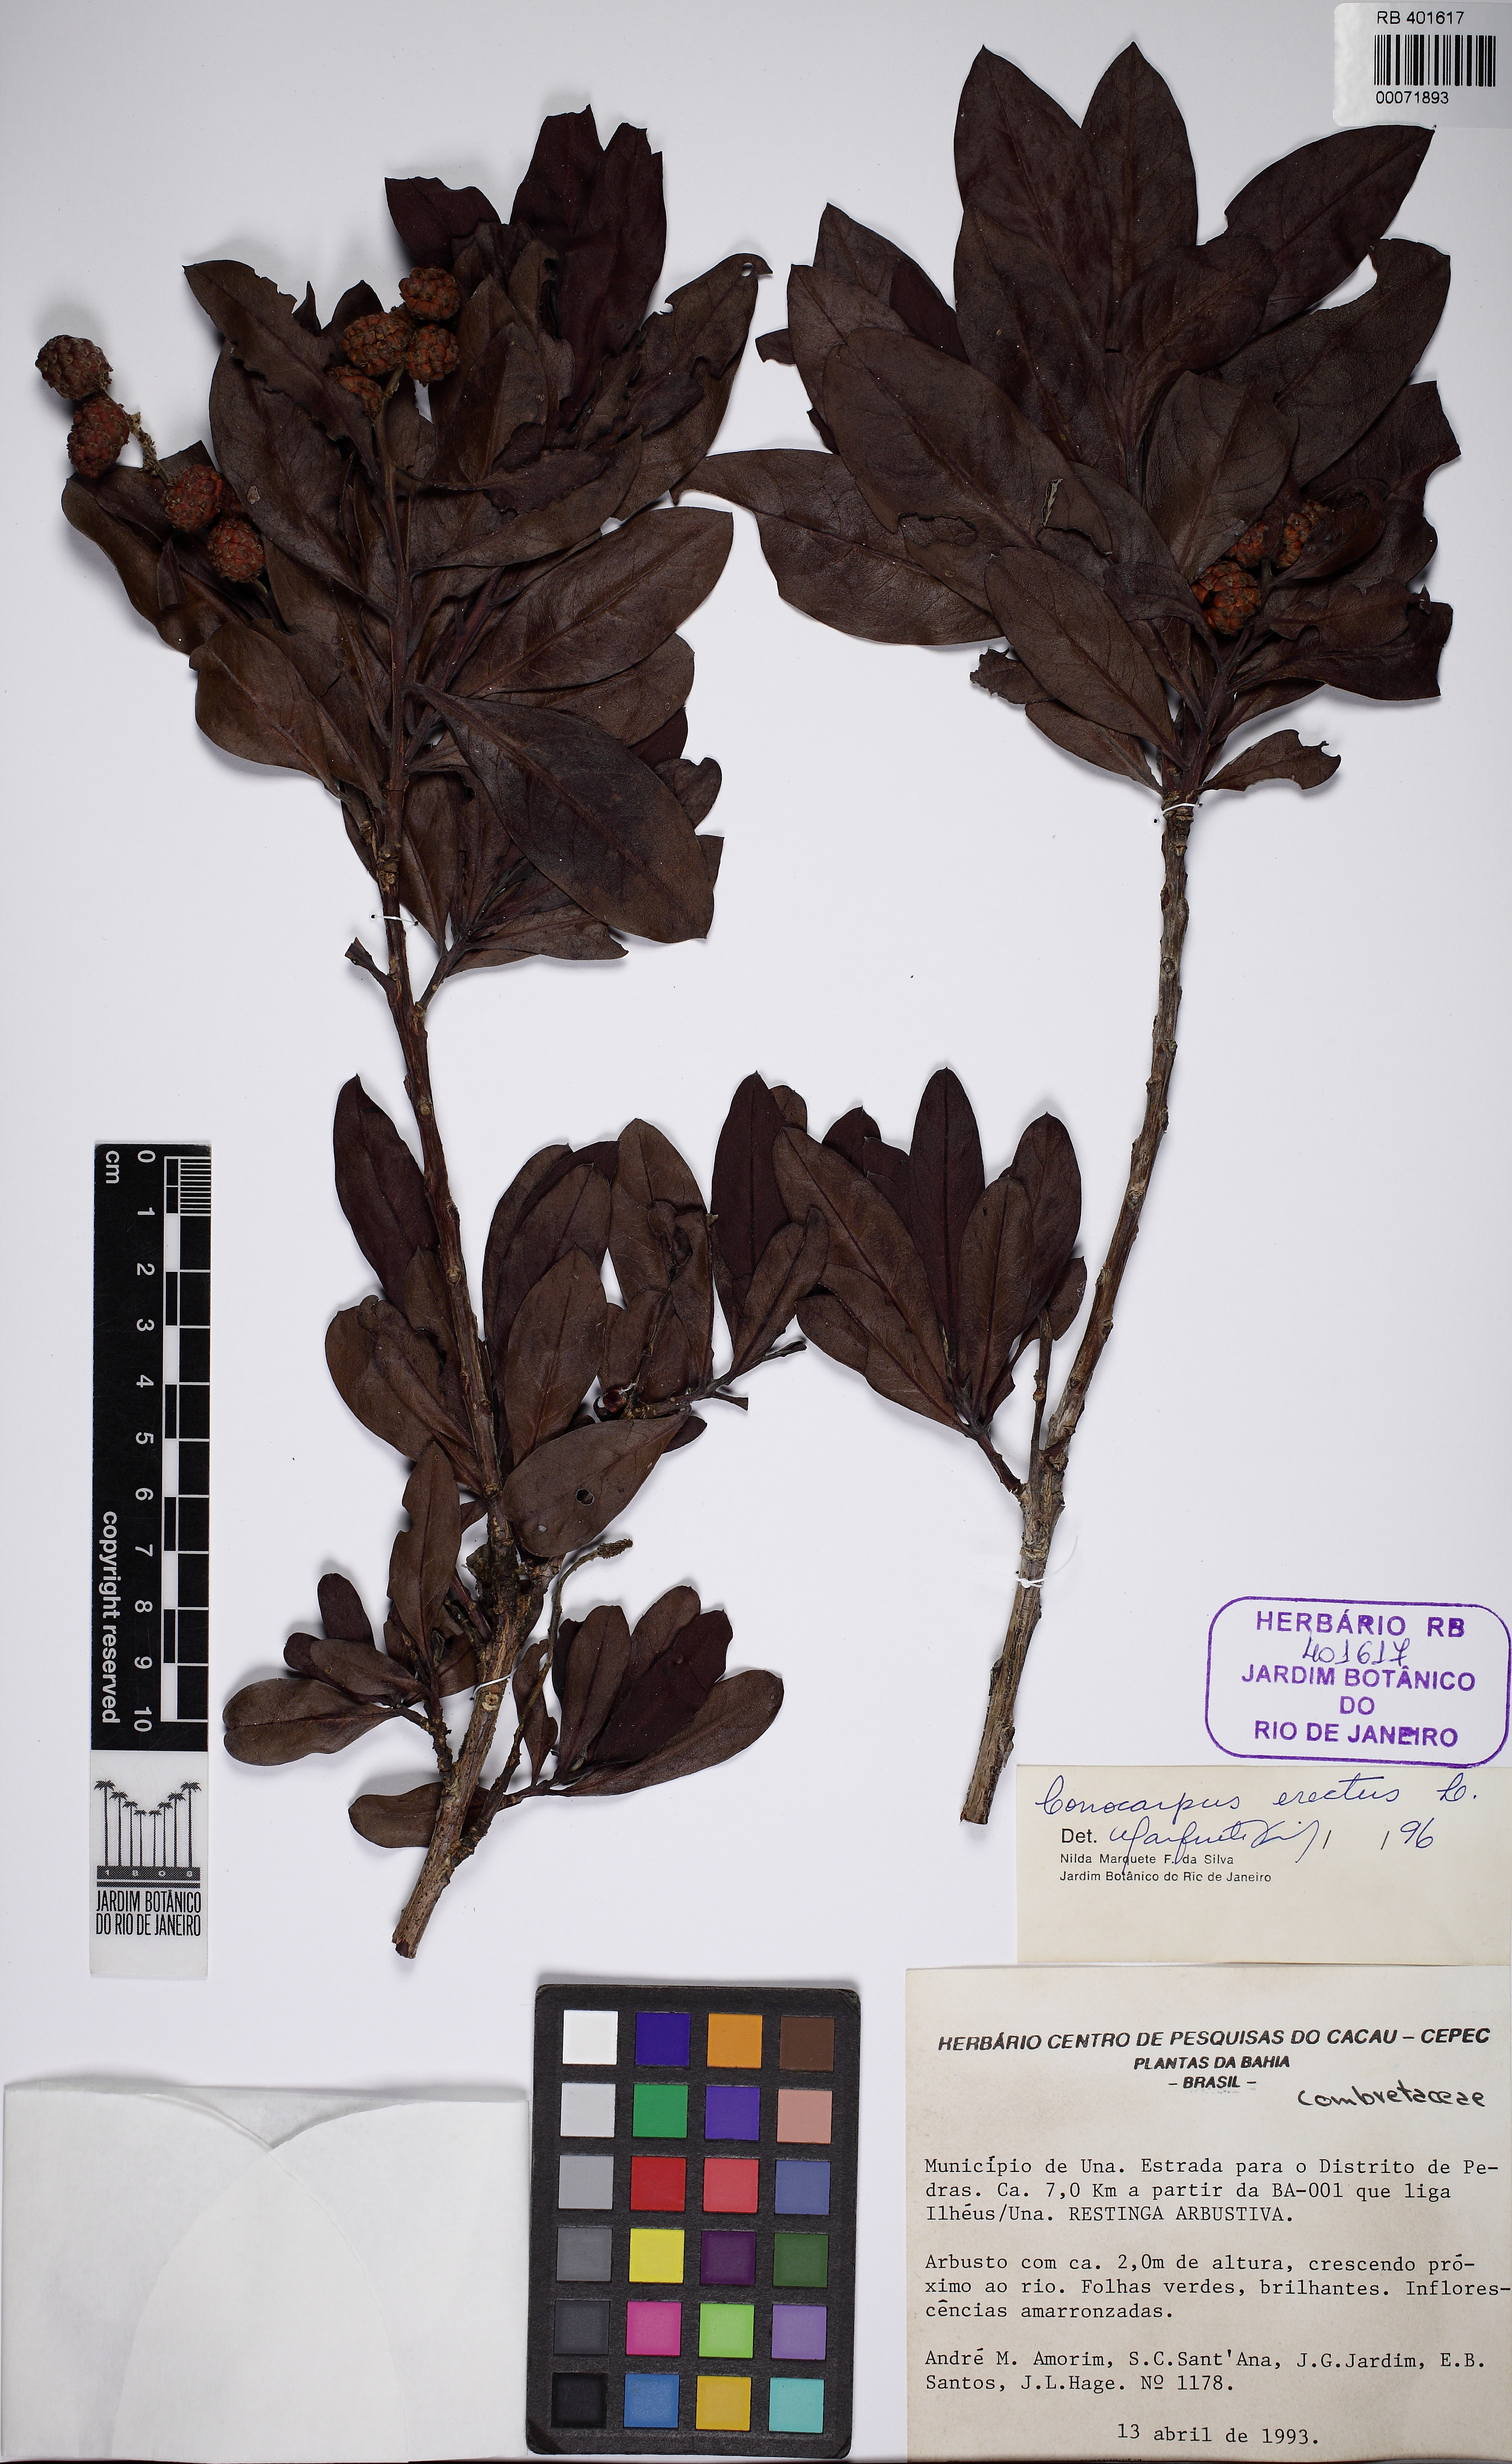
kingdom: Plantae
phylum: Tracheophyta
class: Magnoliopsida
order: Myrtales
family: Combretaceae
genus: Conocarpus
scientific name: Conocarpus erectus
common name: Button mangrove
